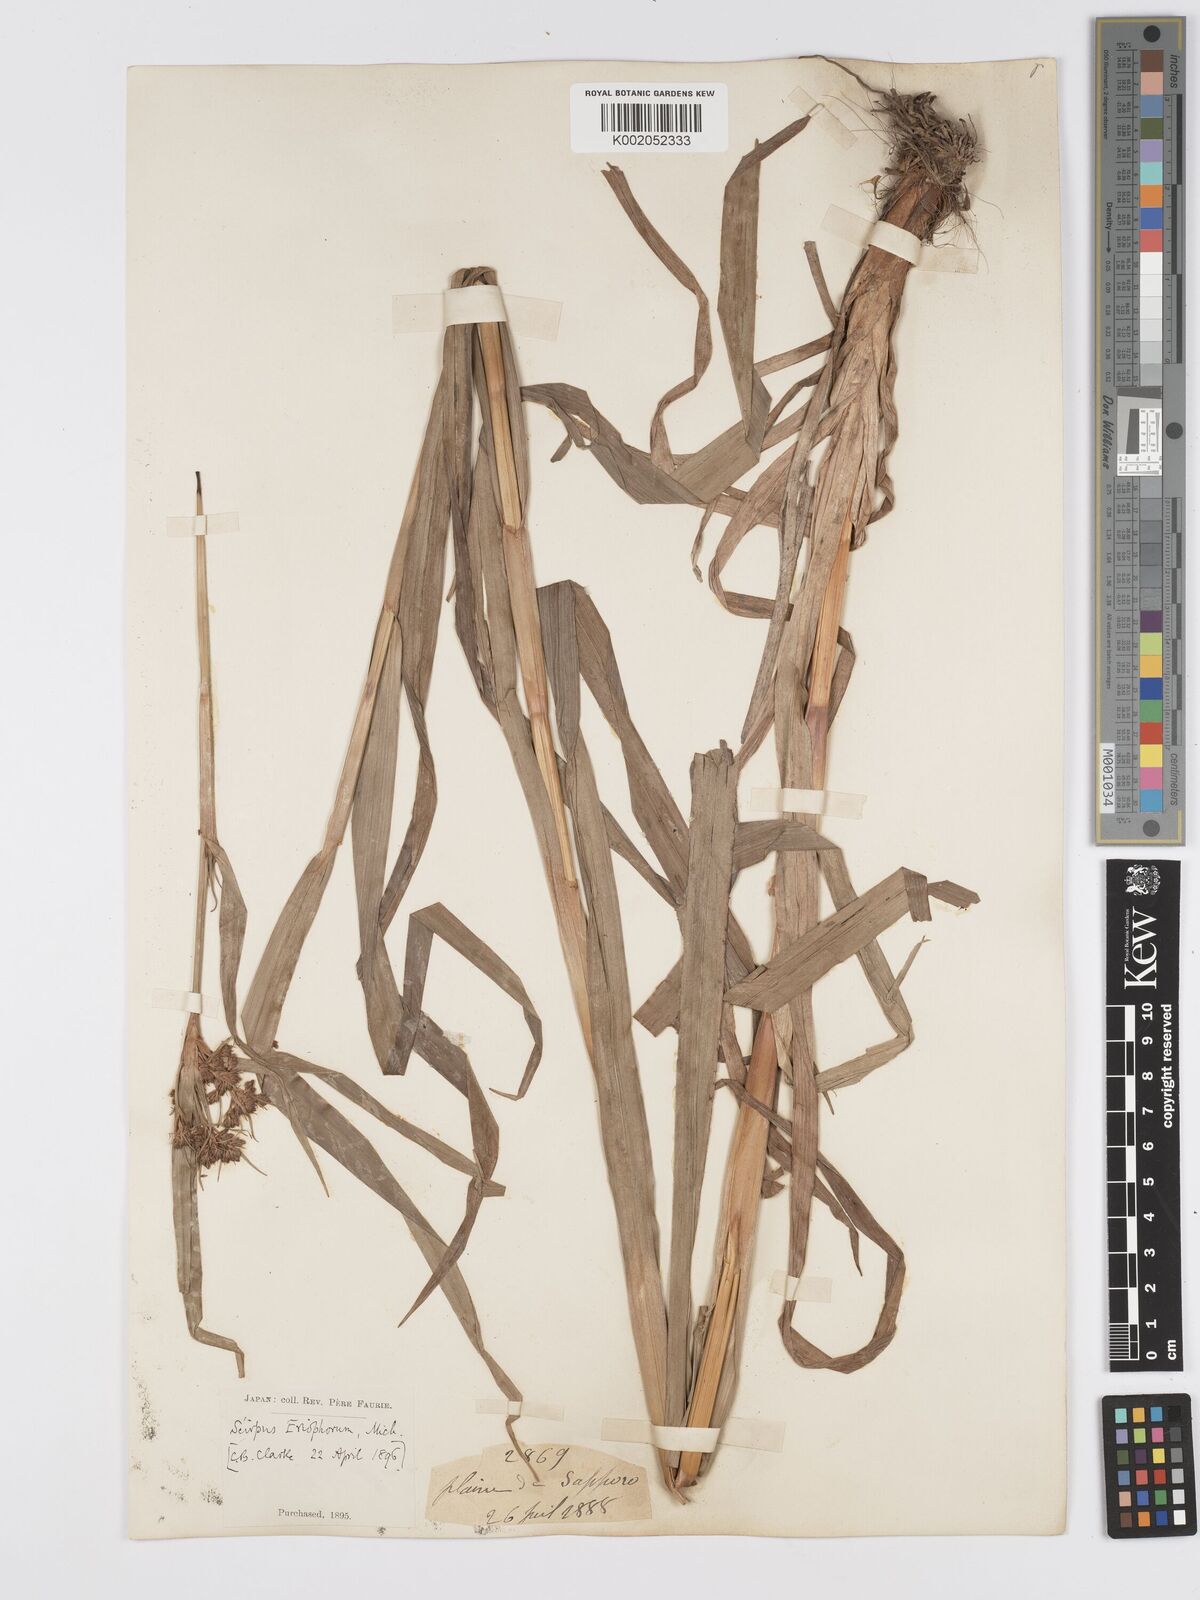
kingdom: Plantae
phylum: Tracheophyta
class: Liliopsida
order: Poales
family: Cyperaceae
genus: Scirpus
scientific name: Scirpus cyperinus
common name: Black-sheathed bulrush
